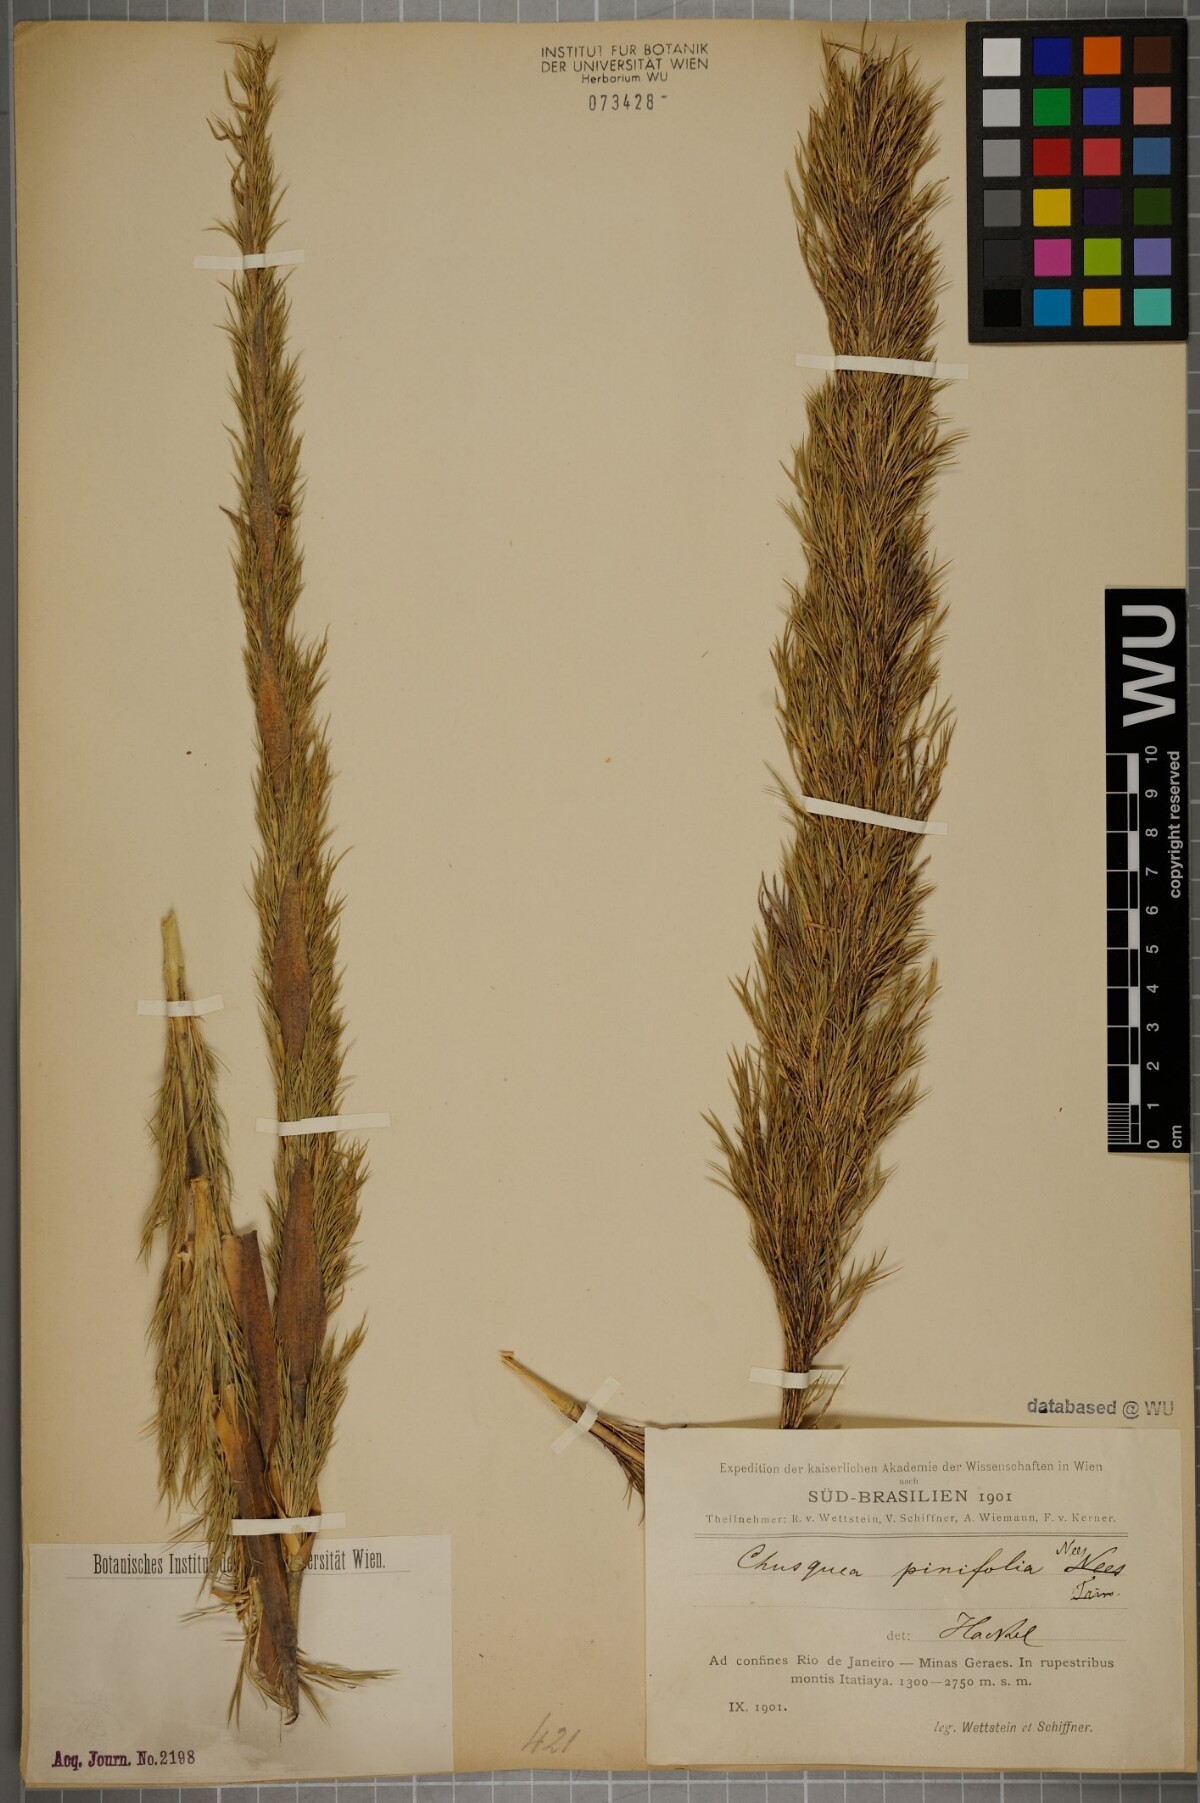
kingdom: Plantae
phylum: Tracheophyta
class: Liliopsida
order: Poales
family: Poaceae
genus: Chusquea
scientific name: Chusquea pinifolia
